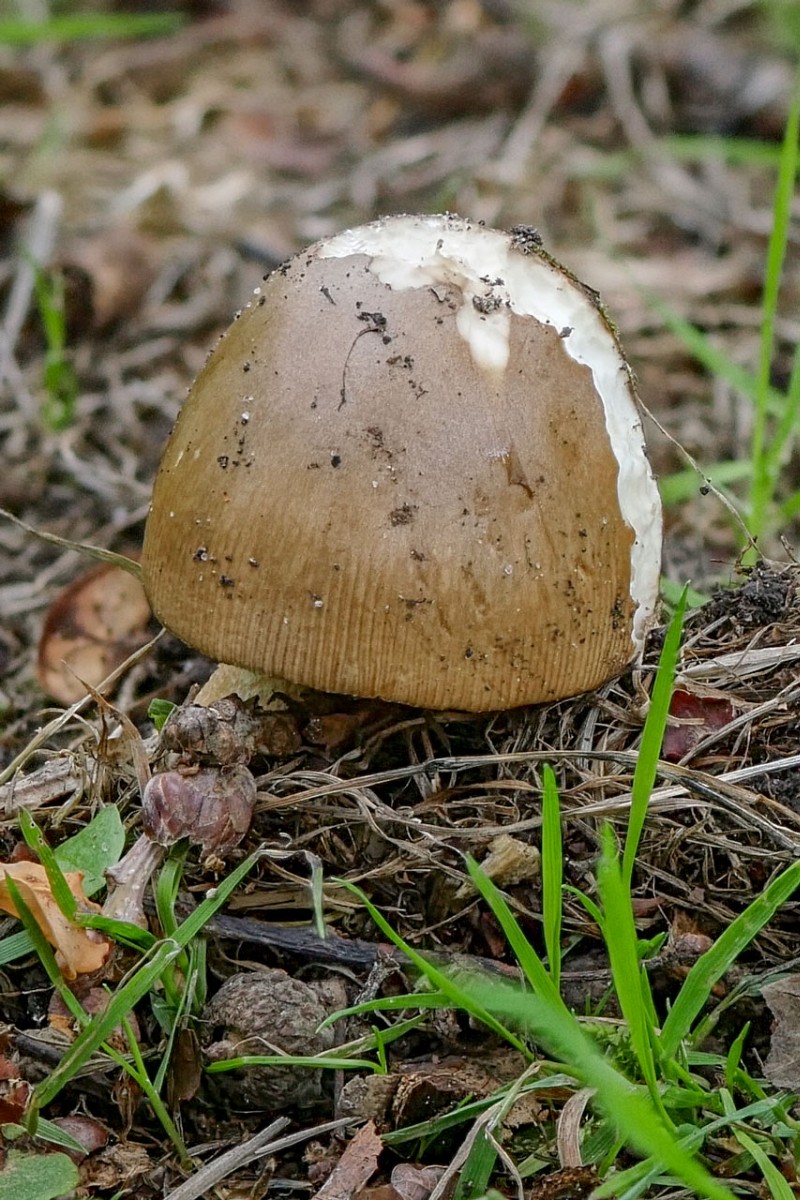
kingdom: Fungi
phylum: Basidiomycota
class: Agaricomycetes
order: Agaricales
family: Amanitaceae
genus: Amanita
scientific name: Amanita fulva
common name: brun kam-fluesvamp
